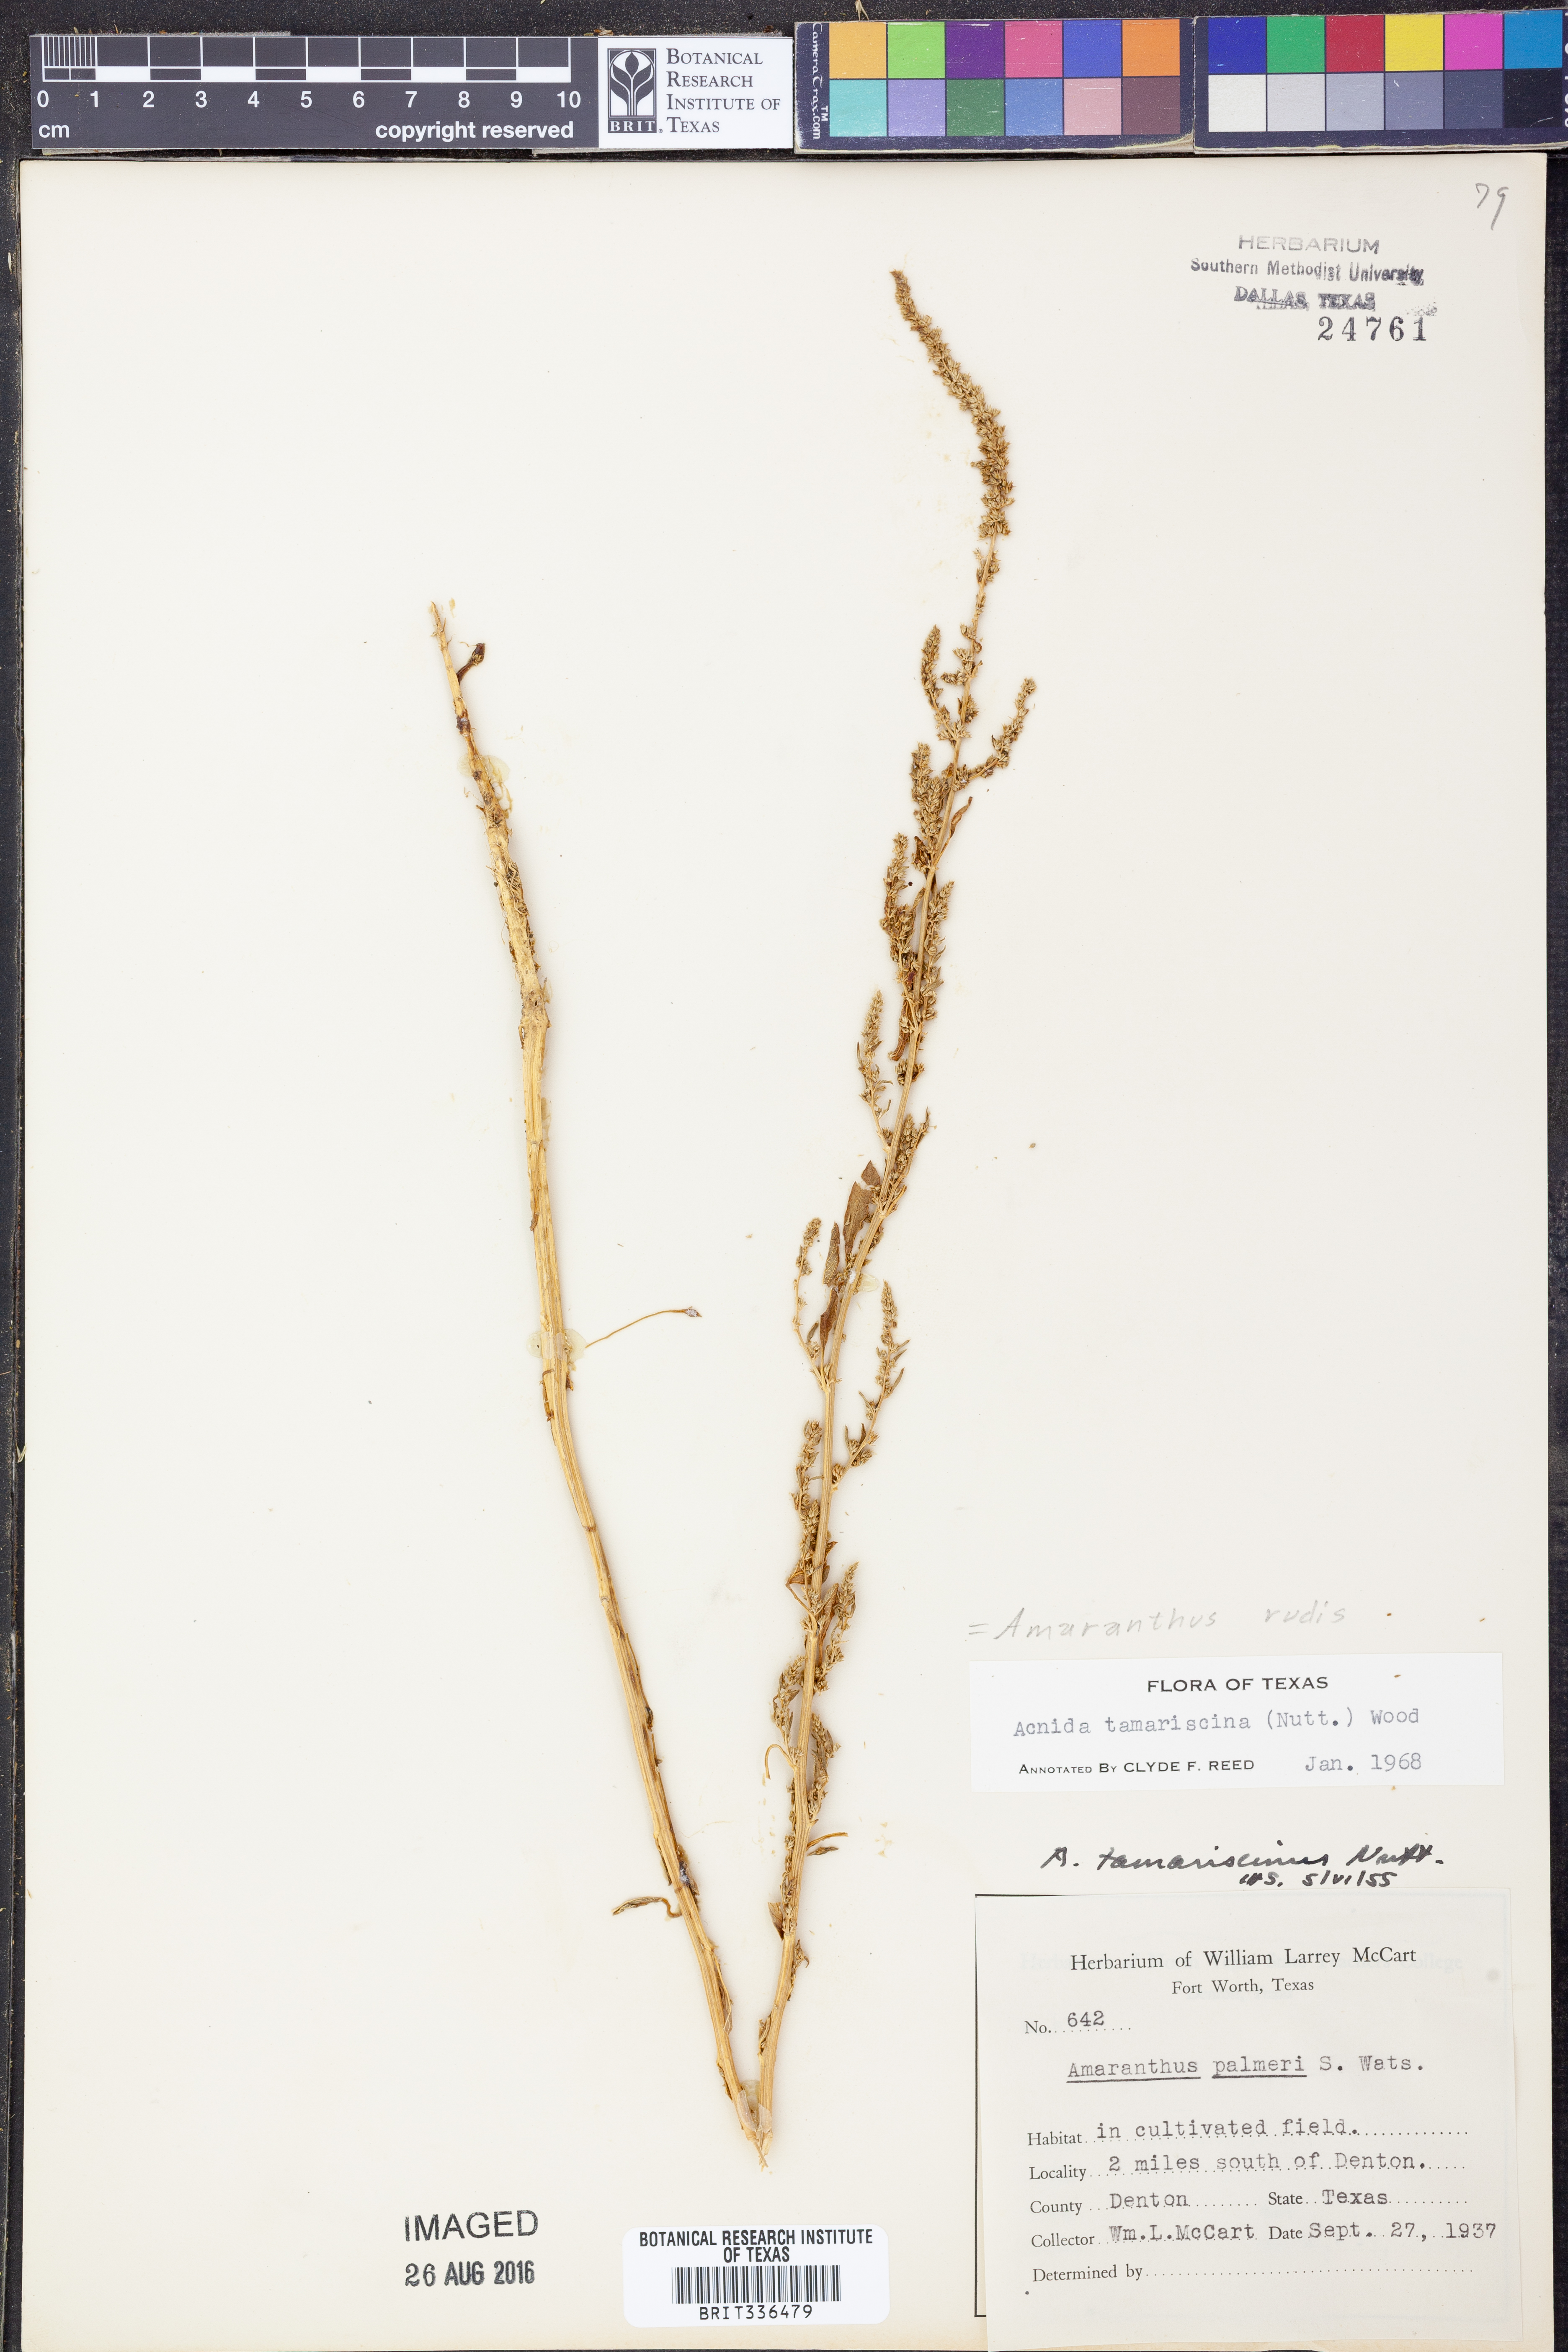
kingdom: Plantae
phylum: Tracheophyta
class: Magnoliopsida
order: Caryophyllales
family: Amaranthaceae
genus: Amaranthus
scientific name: Amaranthus tuberculatus
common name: Rough-fruit amaranth
